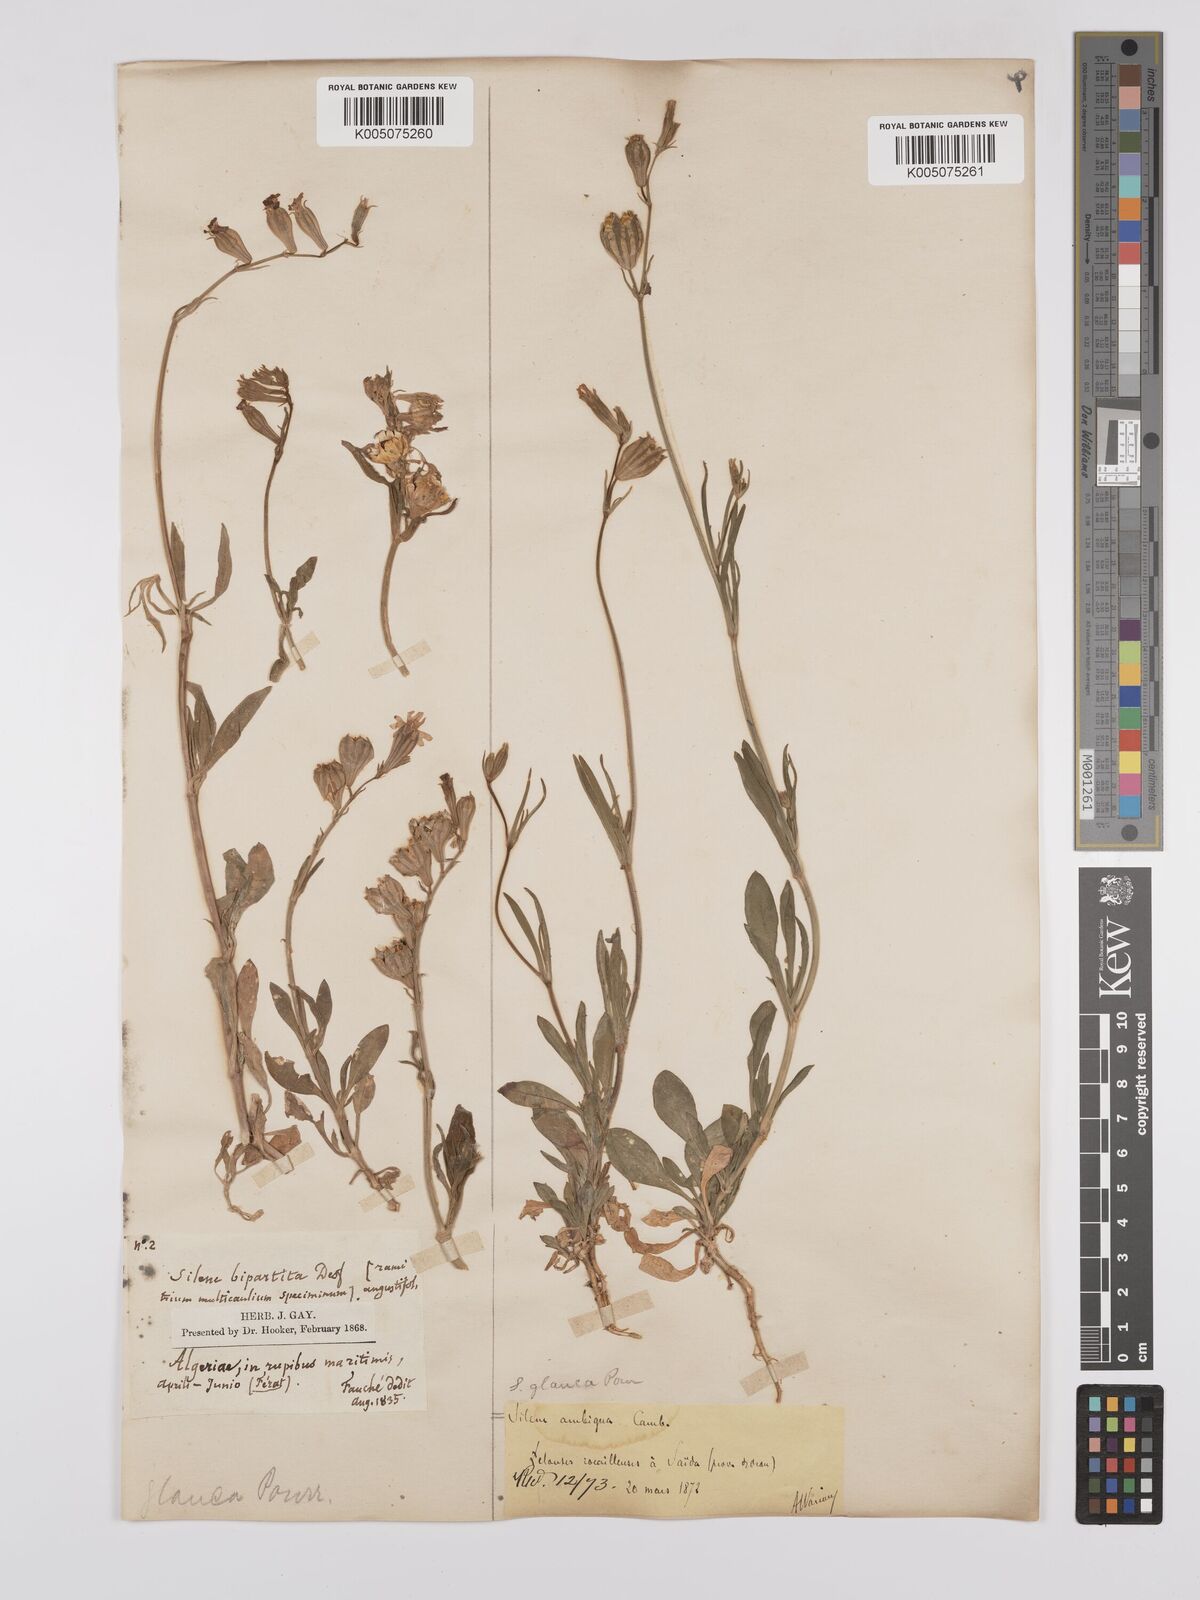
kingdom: Plantae
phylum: Tracheophyta
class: Magnoliopsida
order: Caryophyllales
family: Caryophyllaceae
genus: Silene
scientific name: Silene secundiflora
